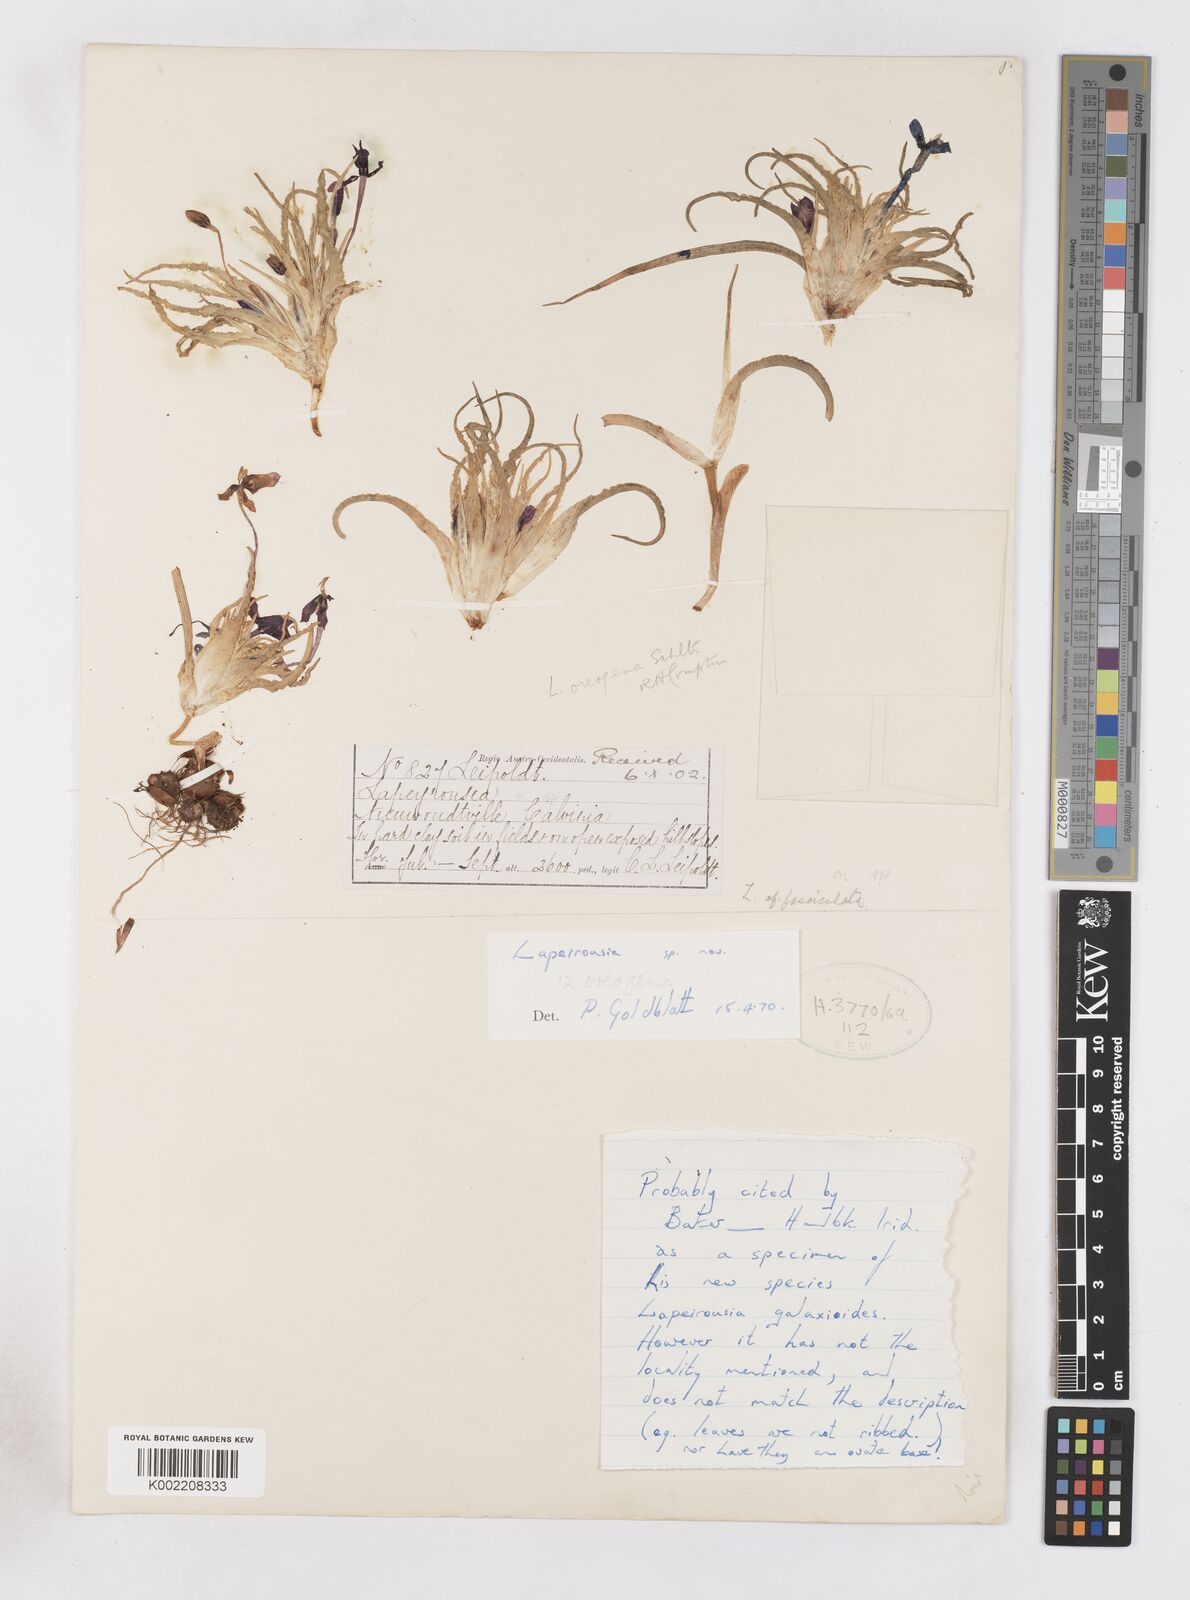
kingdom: Plantae
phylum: Tracheophyta
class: Liliopsida
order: Asparagales
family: Iridaceae
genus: Lapeirousia
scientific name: Lapeirousia oreogena
